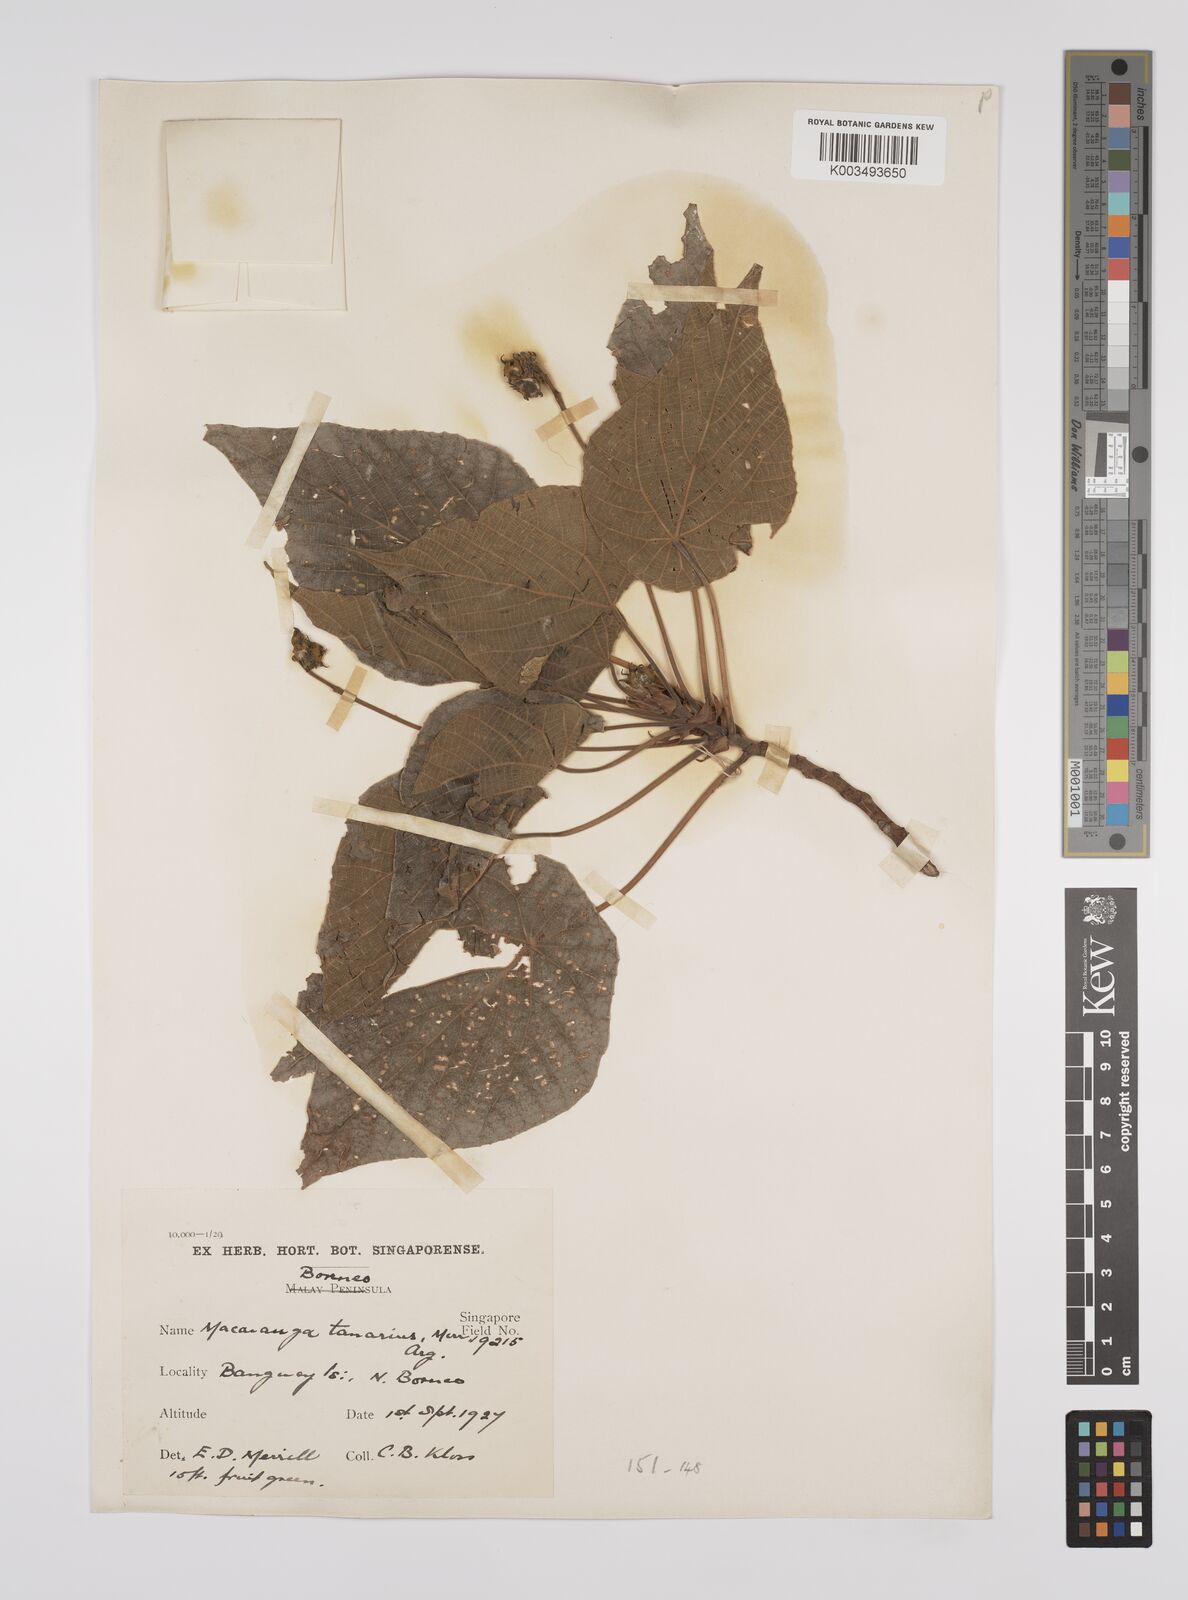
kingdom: Plantae
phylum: Tracheophyta
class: Magnoliopsida
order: Malpighiales
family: Euphorbiaceae
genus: Macaranga
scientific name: Macaranga tanarius
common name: Parasol leaf tree
